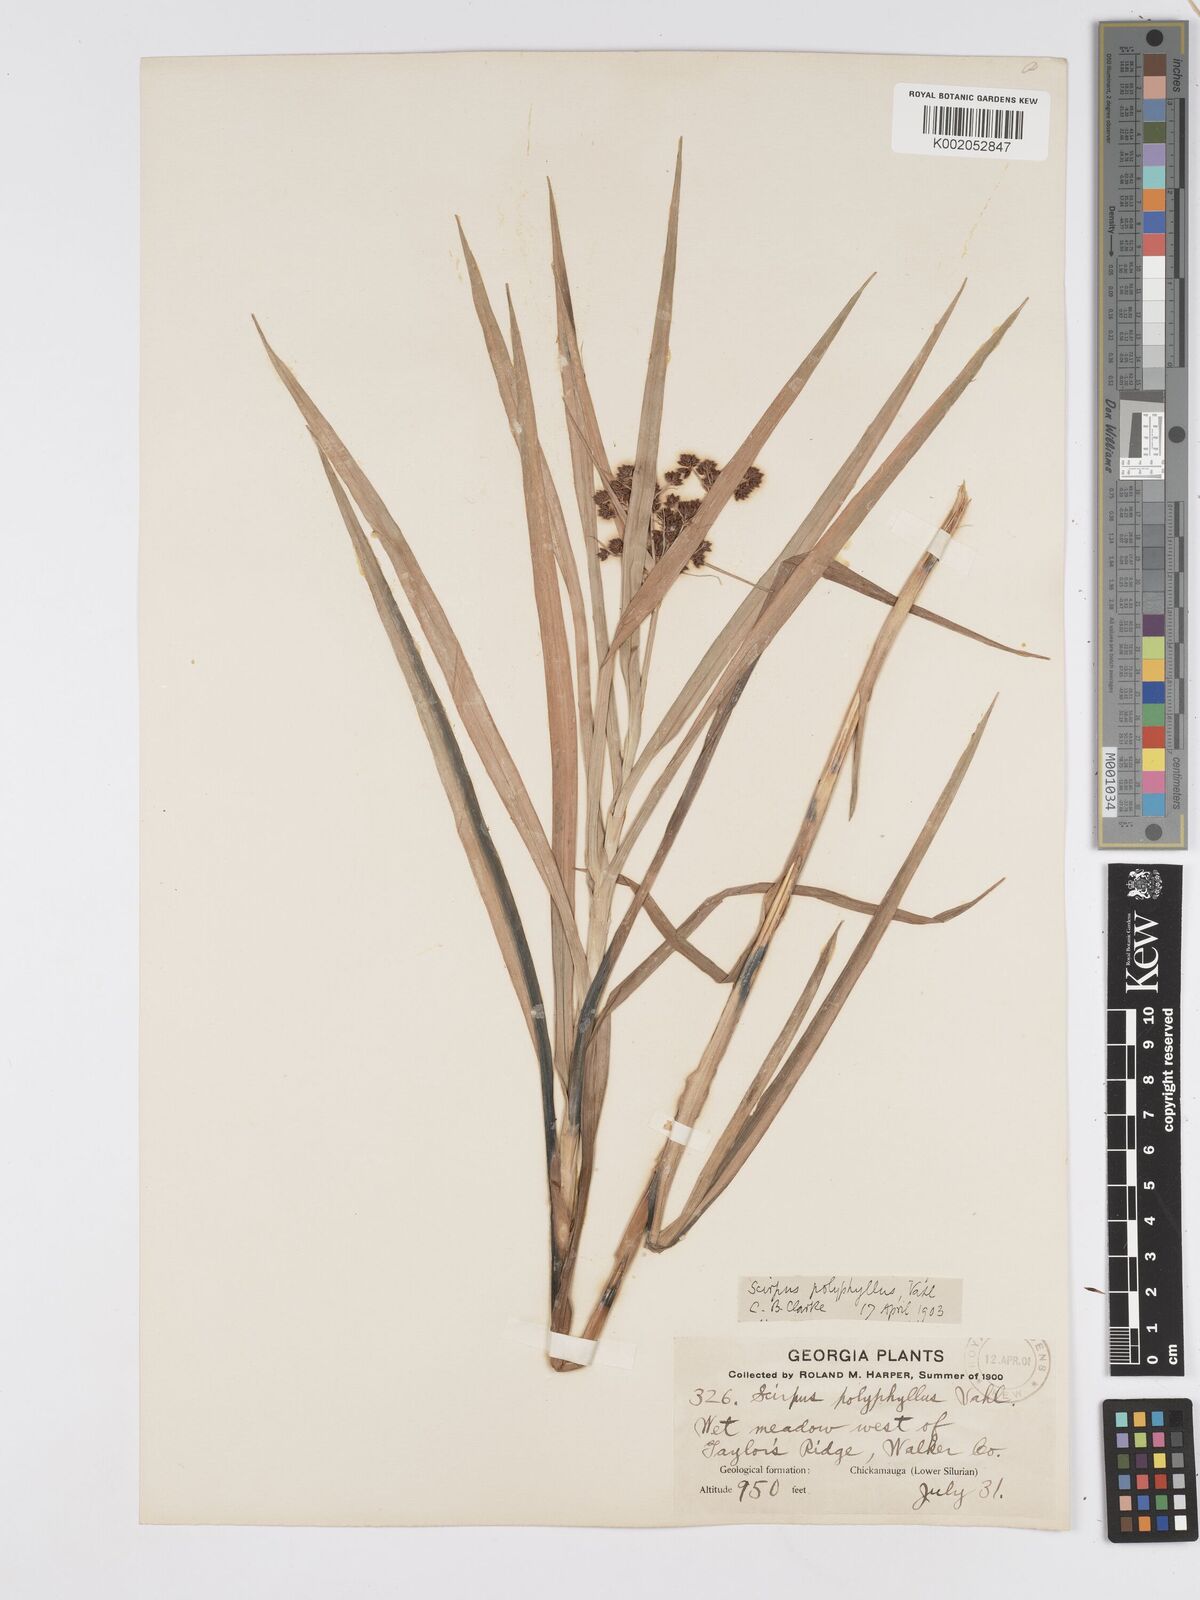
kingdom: Plantae
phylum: Tracheophyta
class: Liliopsida
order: Poales
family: Cyperaceae
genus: Scirpus
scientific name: Scirpus polyphyllus
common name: Leafy bulrush
